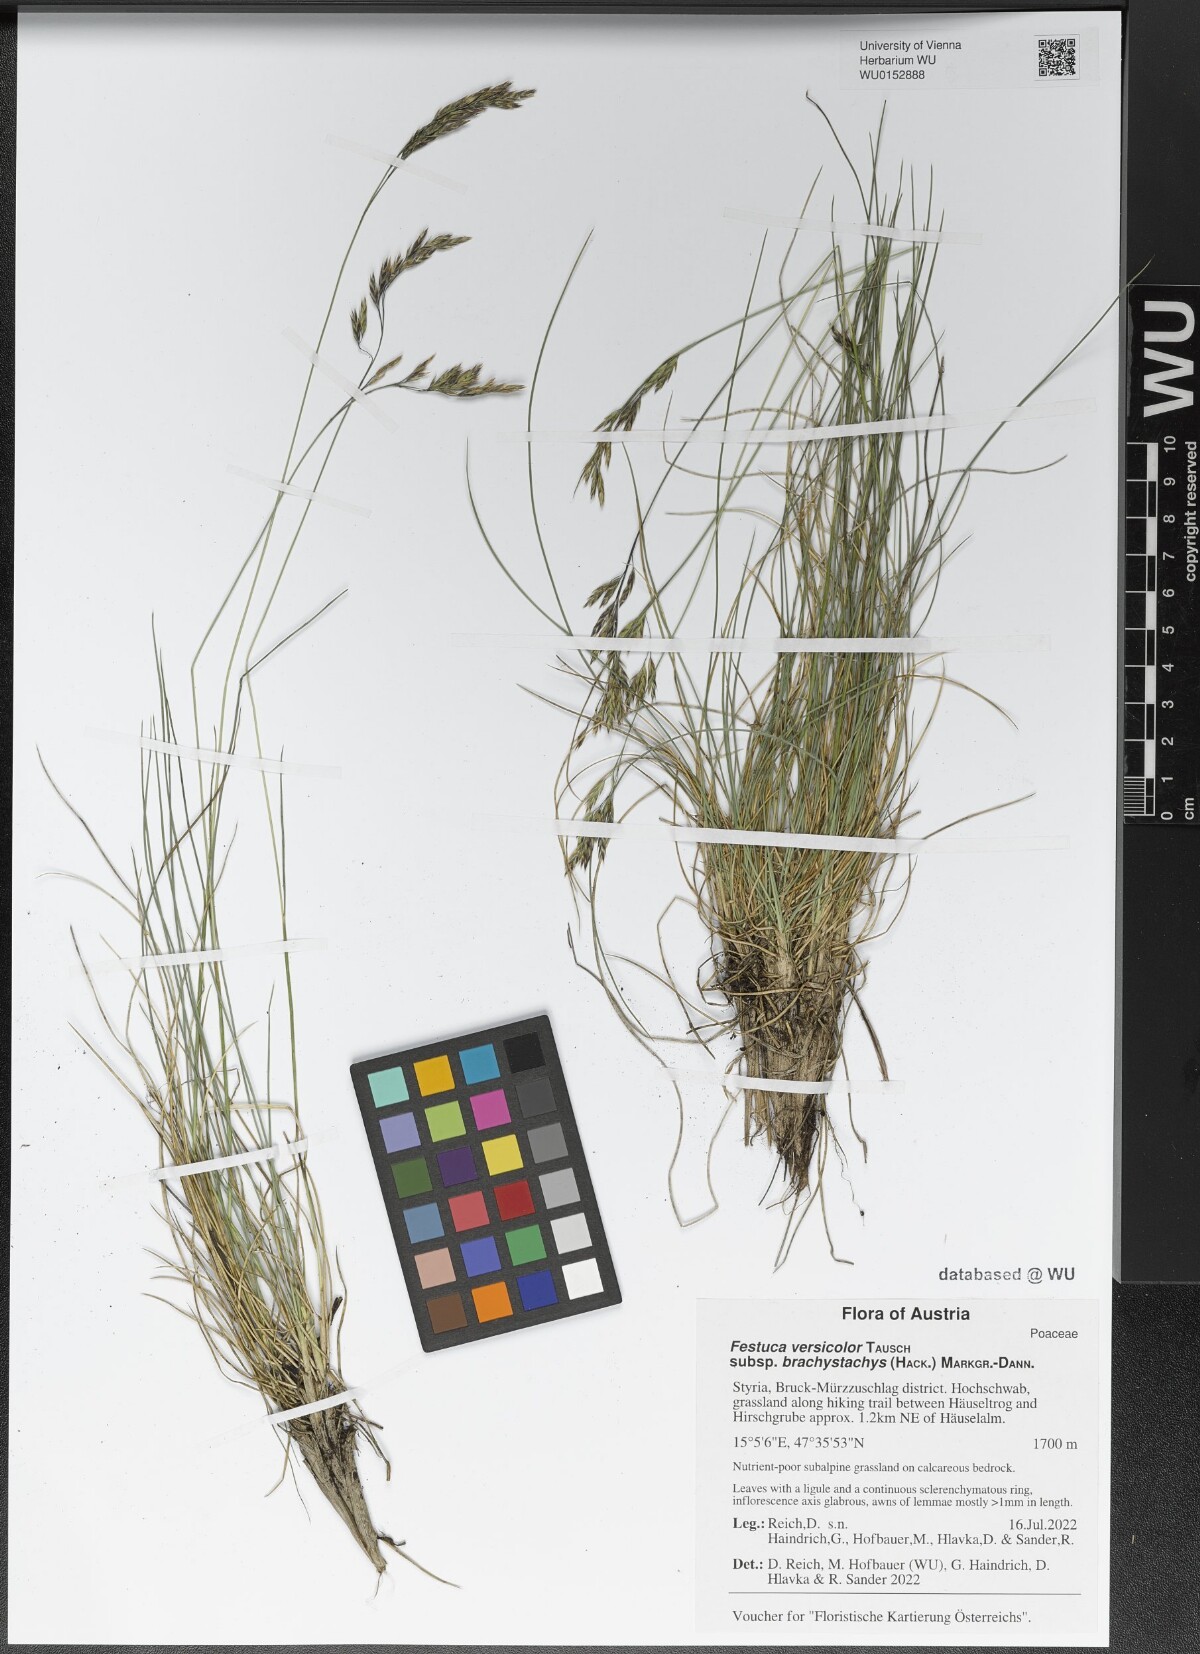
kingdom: Plantae
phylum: Tracheophyta
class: Liliopsida
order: Poales
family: Poaceae
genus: Festuca
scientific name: Festuca varia
